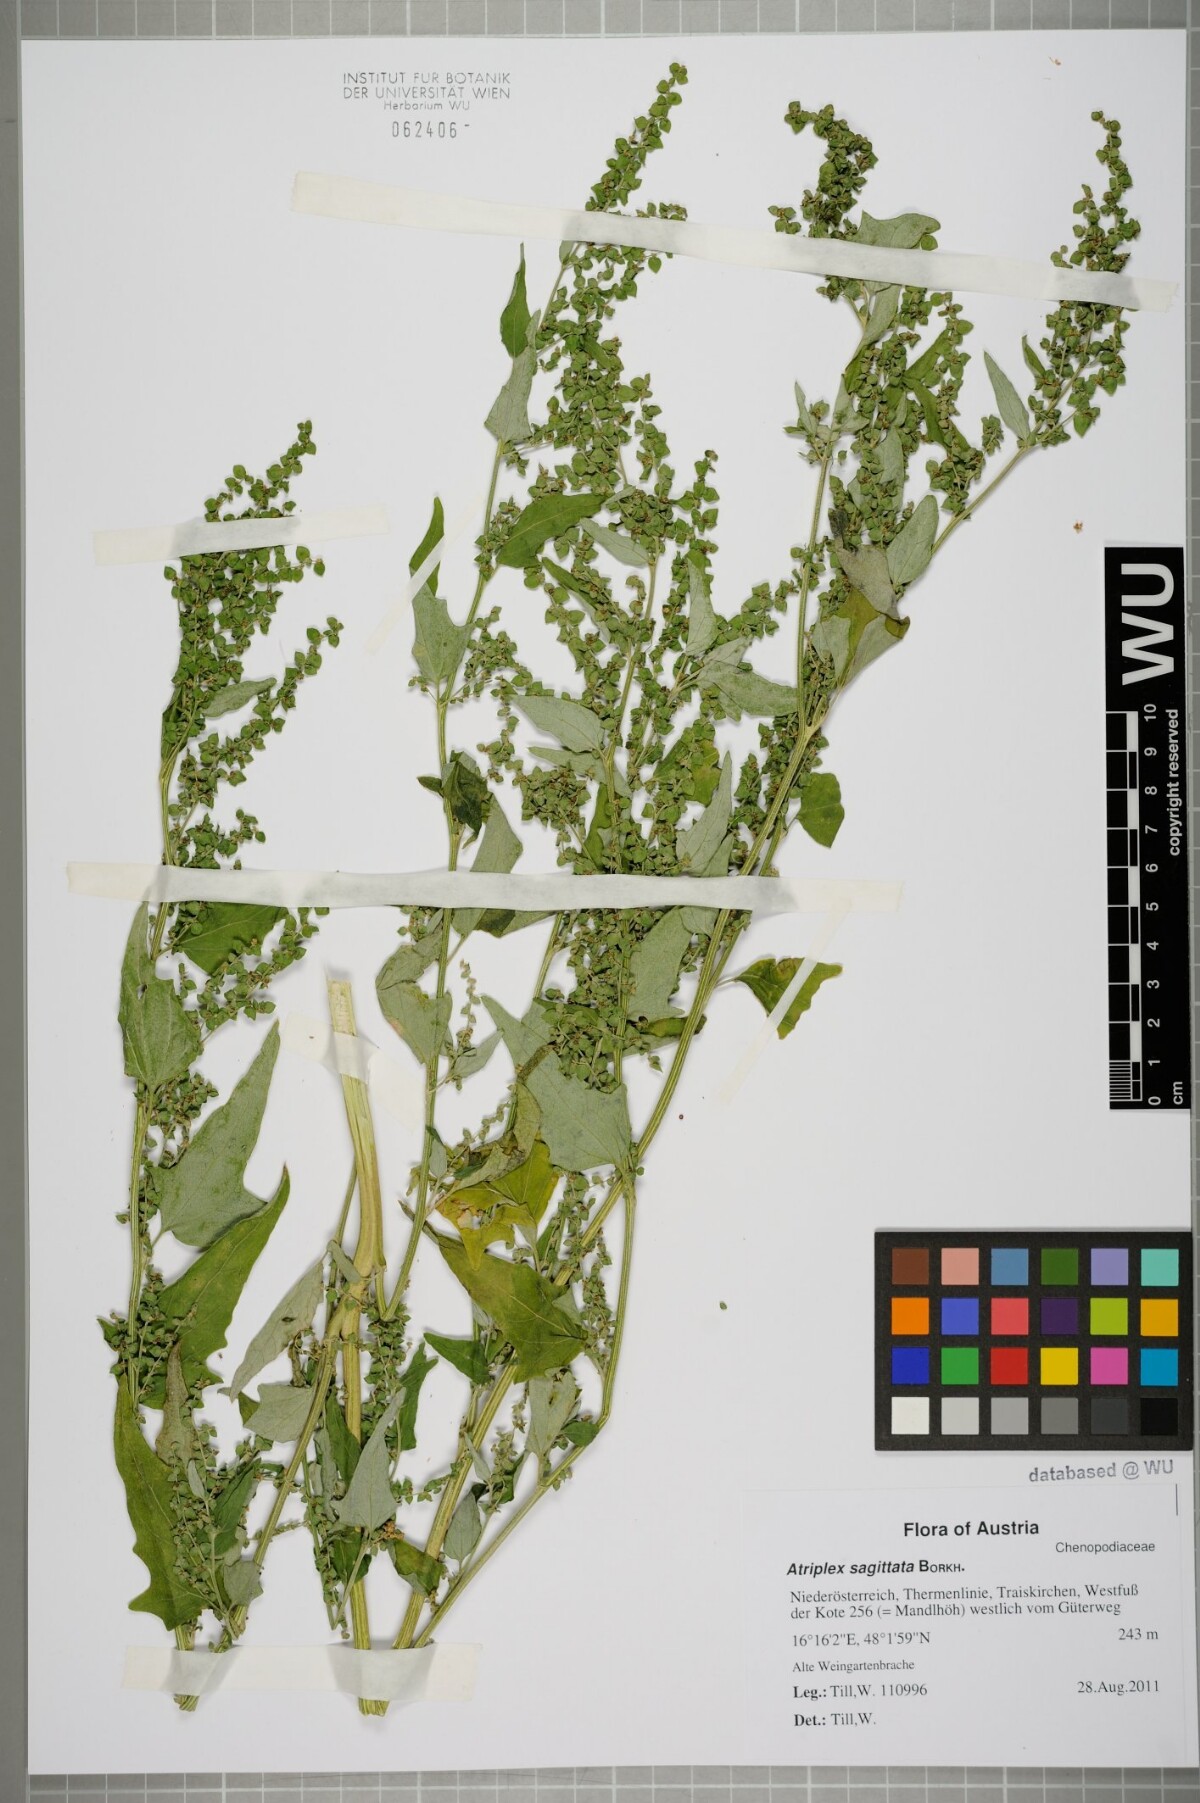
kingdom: Plantae
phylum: Tracheophyta
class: Magnoliopsida
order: Caryophyllales
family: Amaranthaceae
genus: Atriplex
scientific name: Atriplex sagittata
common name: Purple orache
